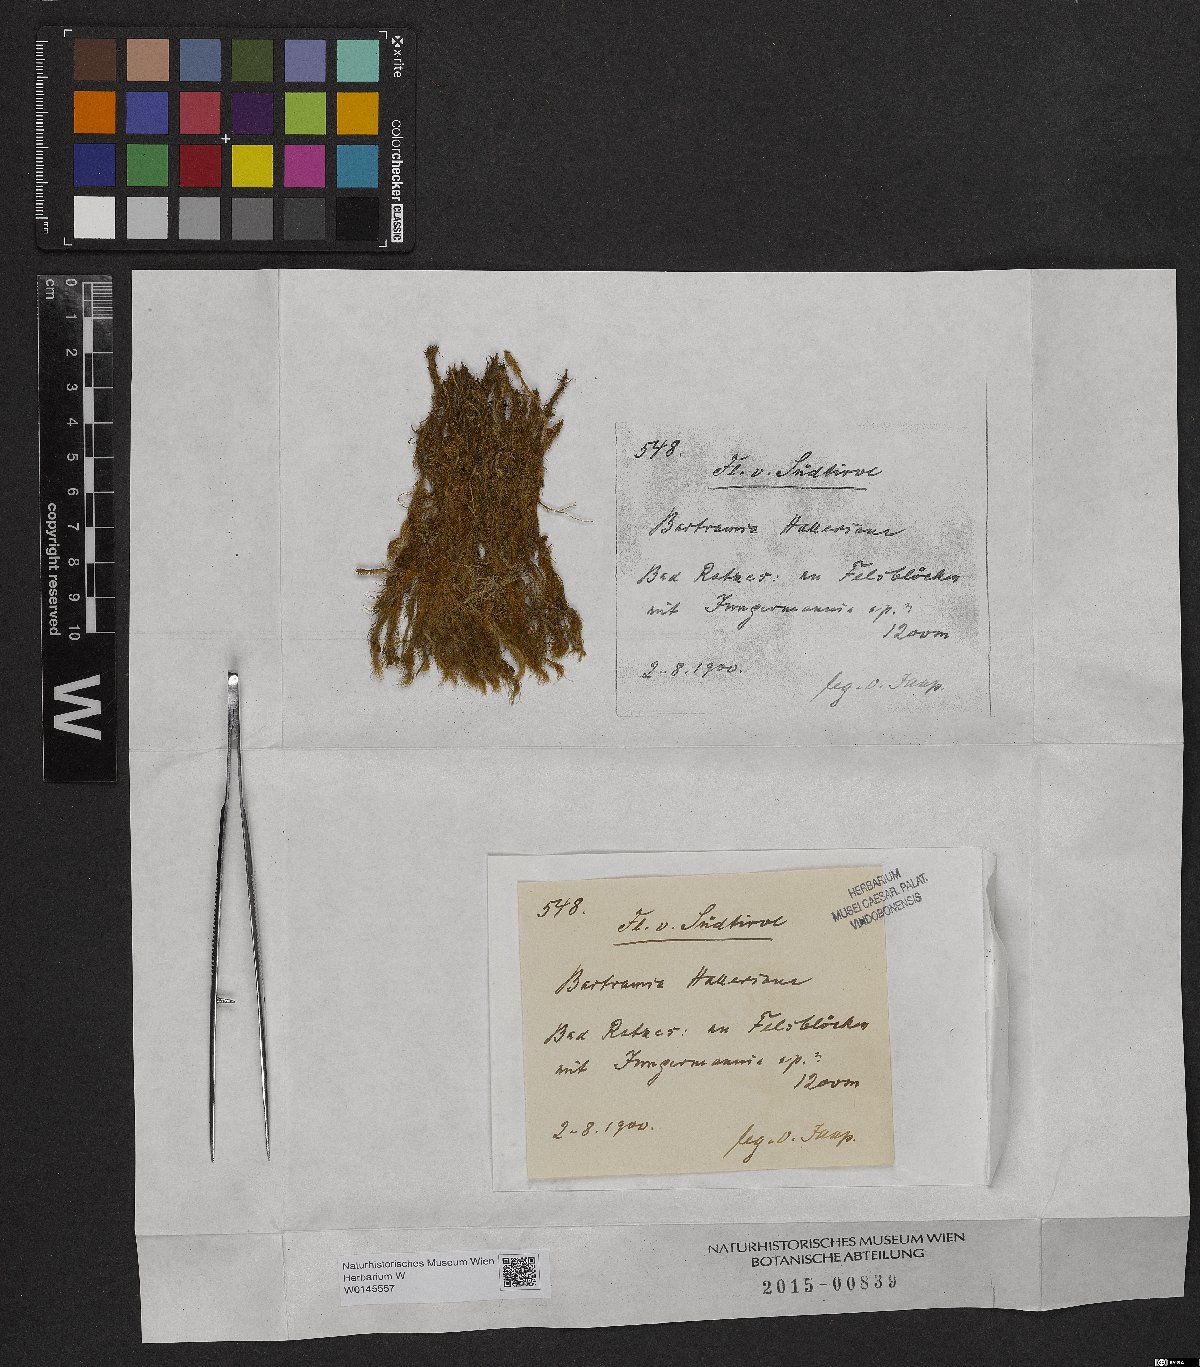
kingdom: Plantae
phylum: Bryophyta
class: Bryopsida
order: Bartramiales
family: Bartramiaceae
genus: Bartramia
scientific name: Bartramia halleriana
